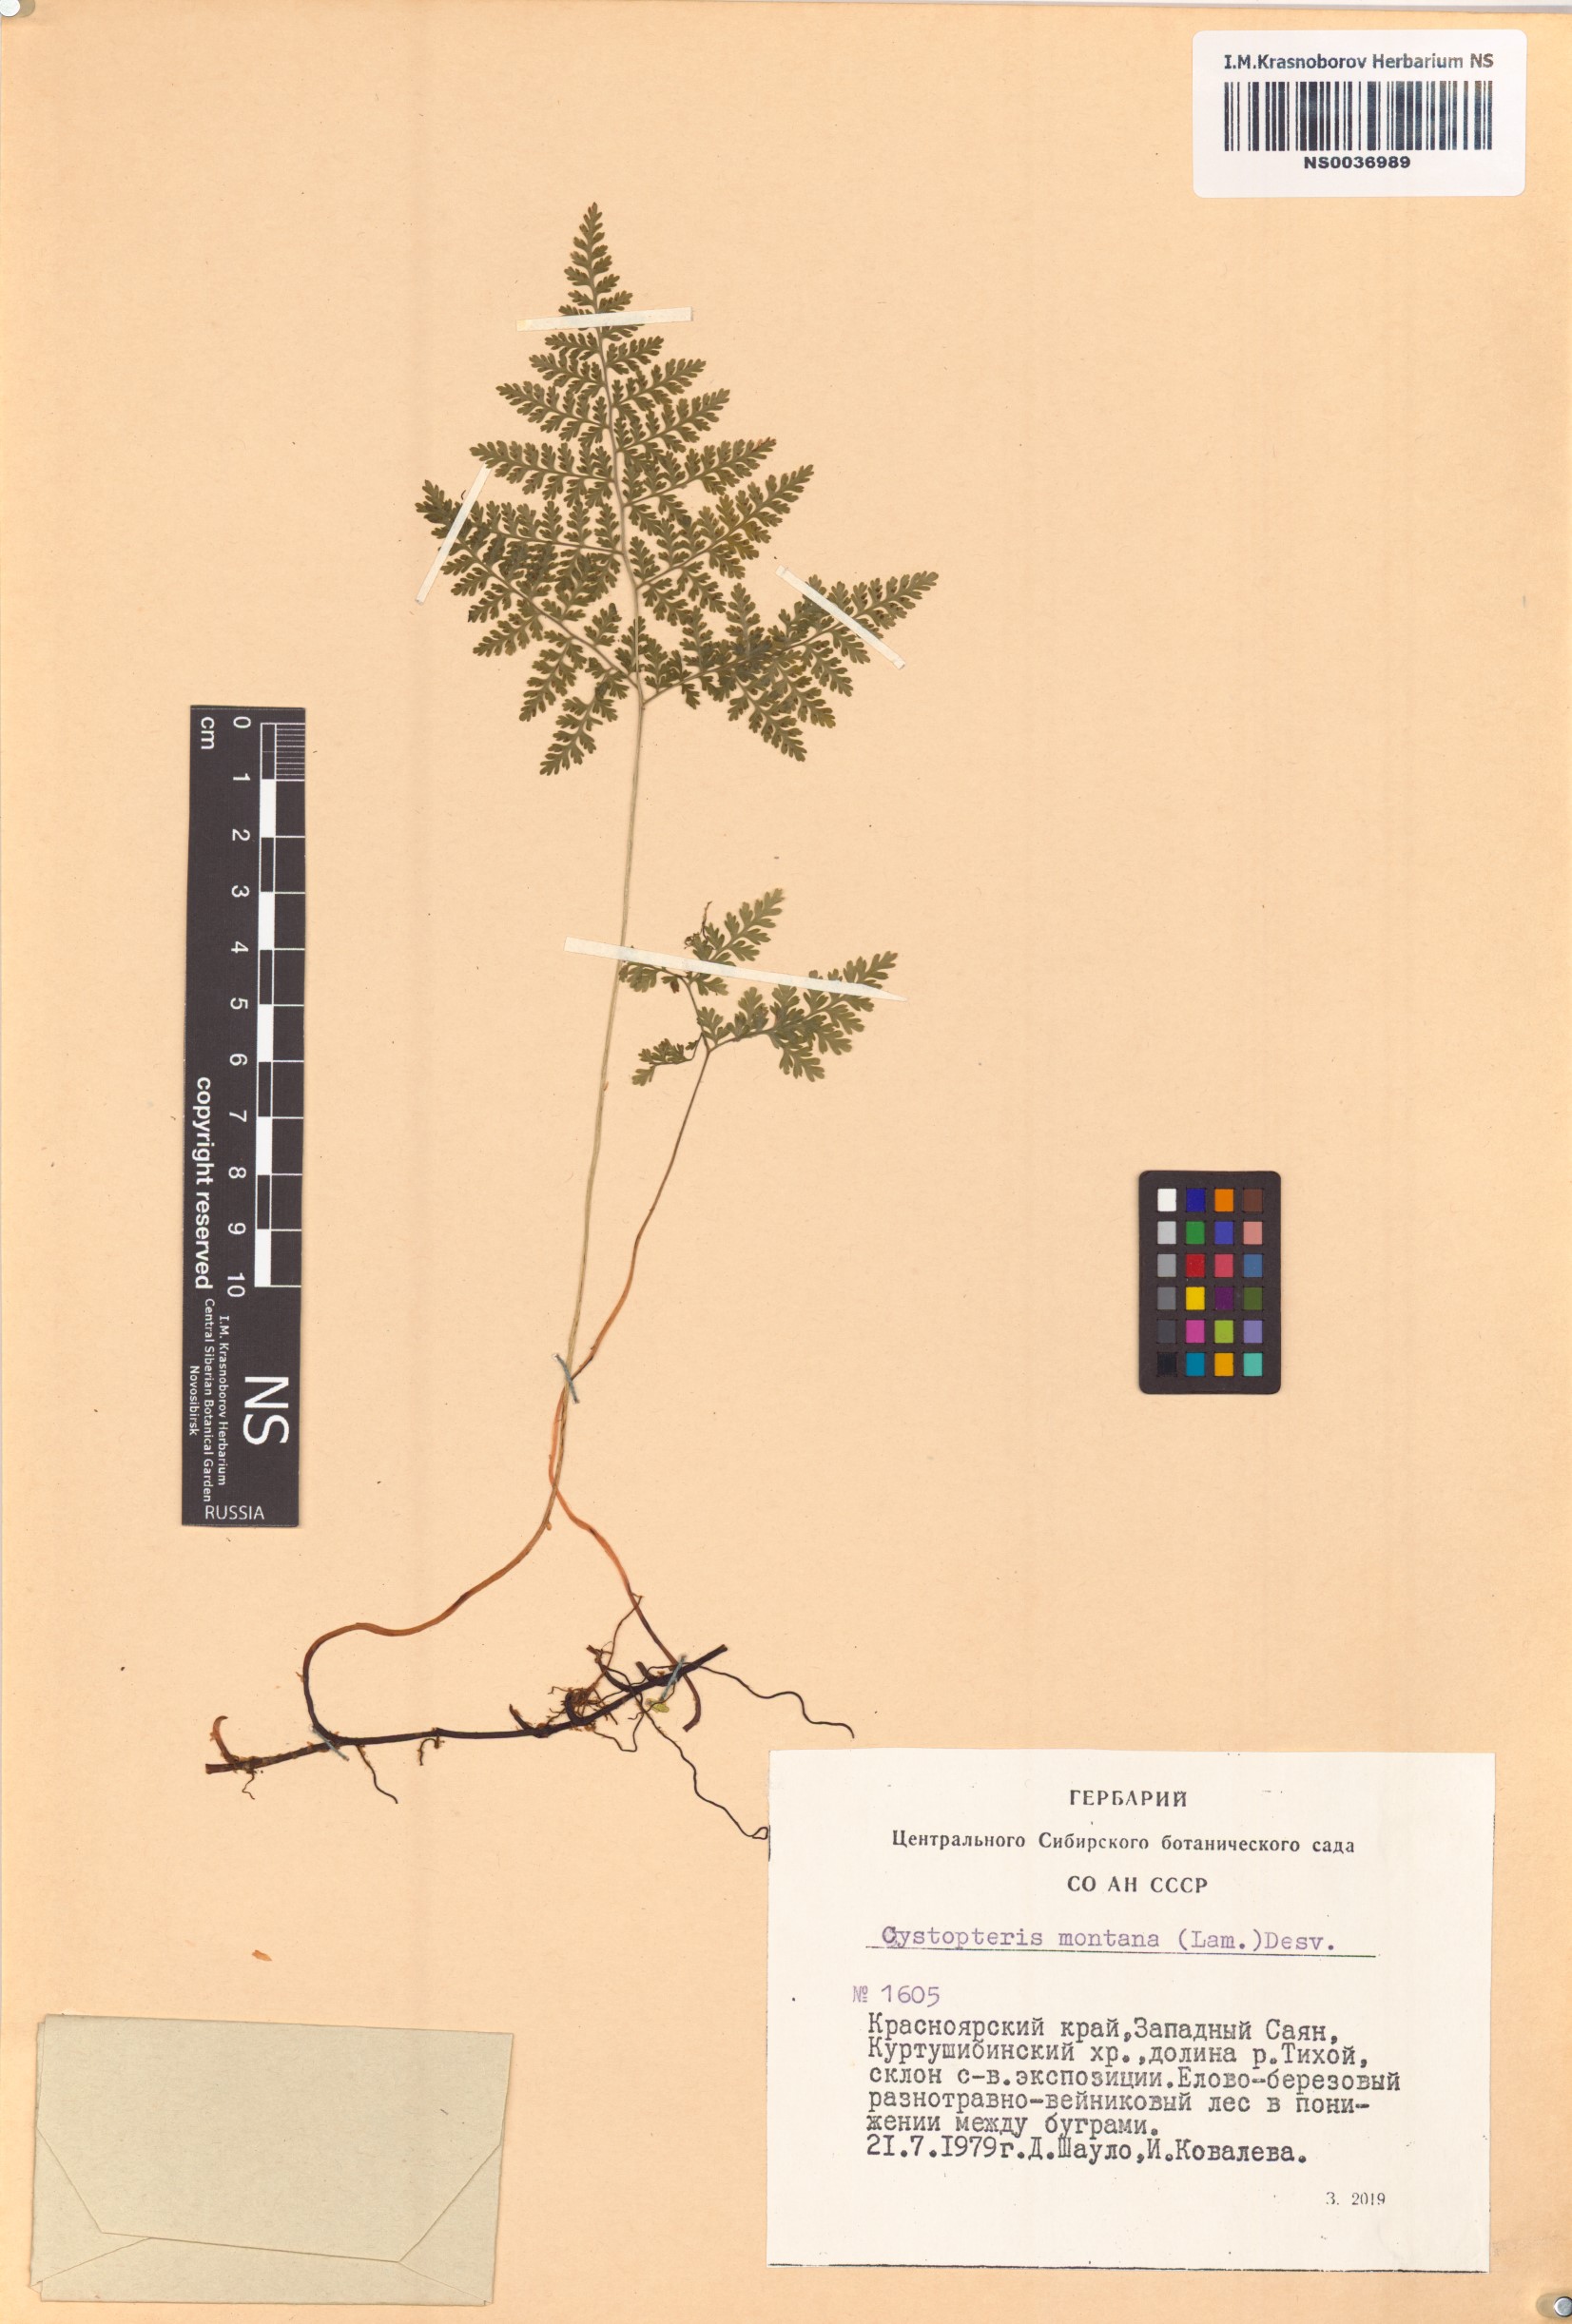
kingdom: Plantae
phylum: Tracheophyta
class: Polypodiopsida
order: Polypodiales
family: Cystopteridaceae
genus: Cystopteris
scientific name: Cystopteris montana
